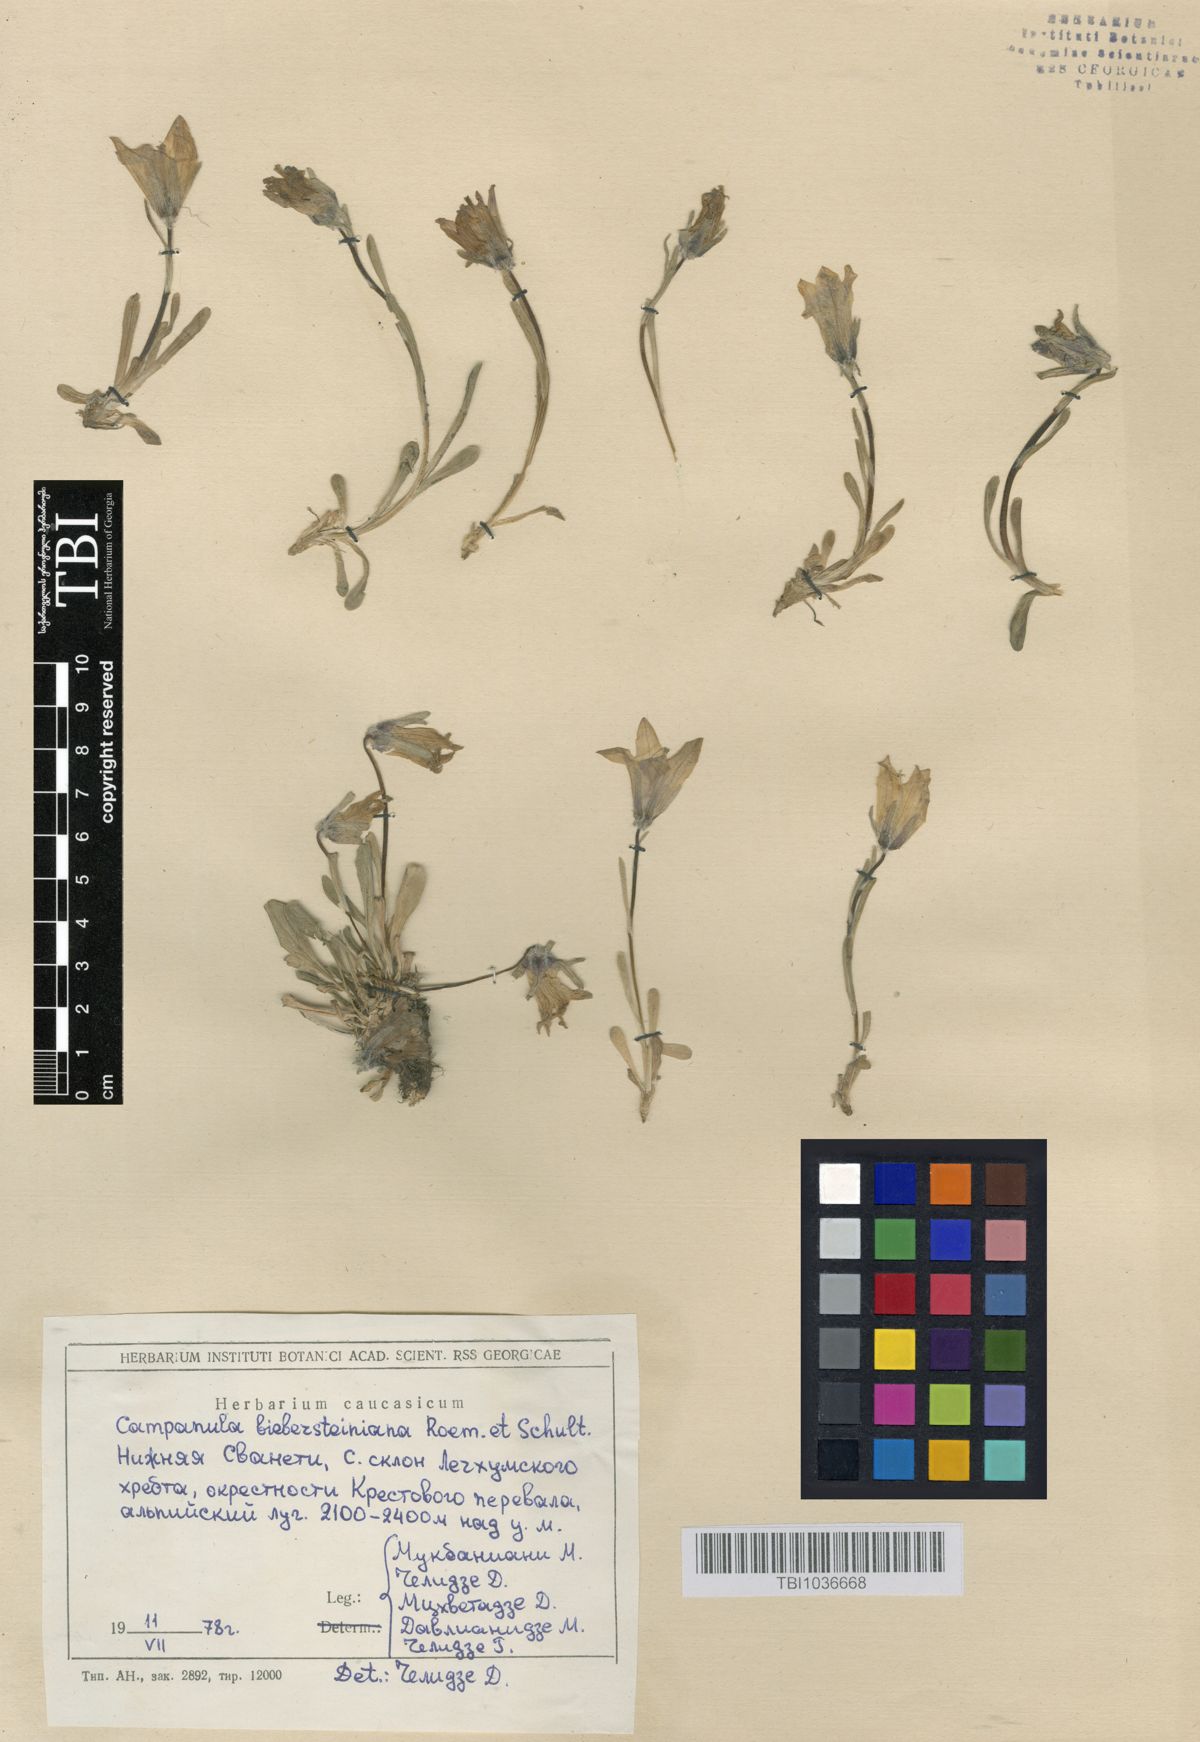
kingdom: Plantae
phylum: Tracheophyta
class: Magnoliopsida
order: Asterales
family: Campanulaceae
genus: Campanula
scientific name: Campanula tridentata
